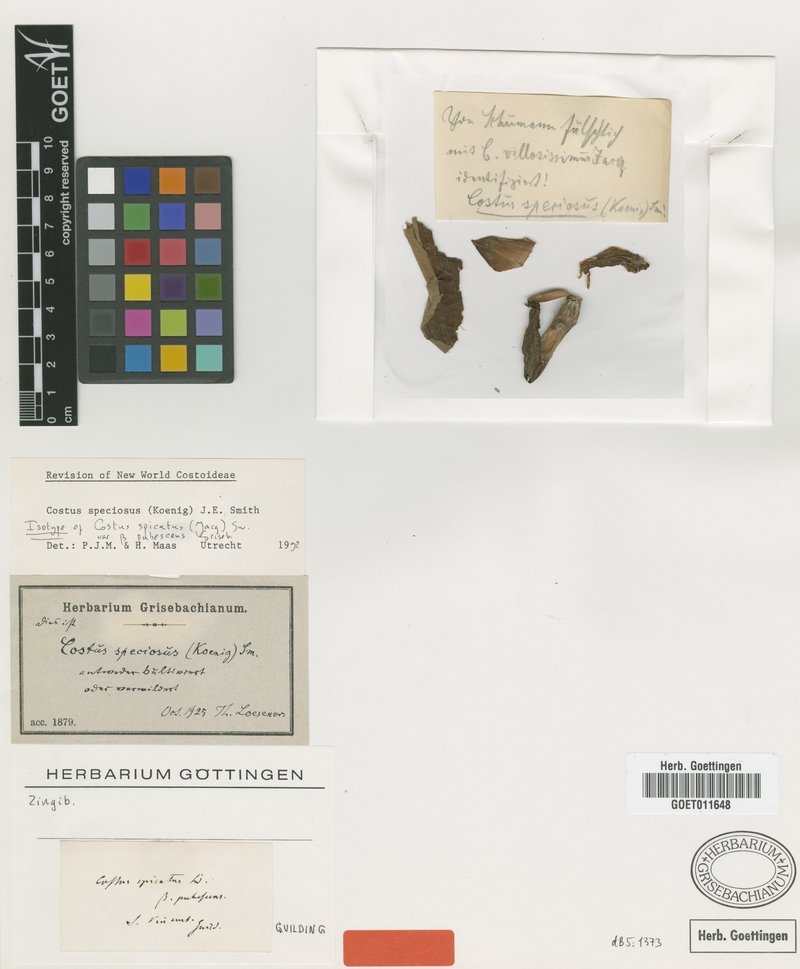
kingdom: Plantae
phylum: Tracheophyta
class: Liliopsida
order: Zingiberales
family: Costaceae
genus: Hellenia
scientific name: Hellenia speciosa
